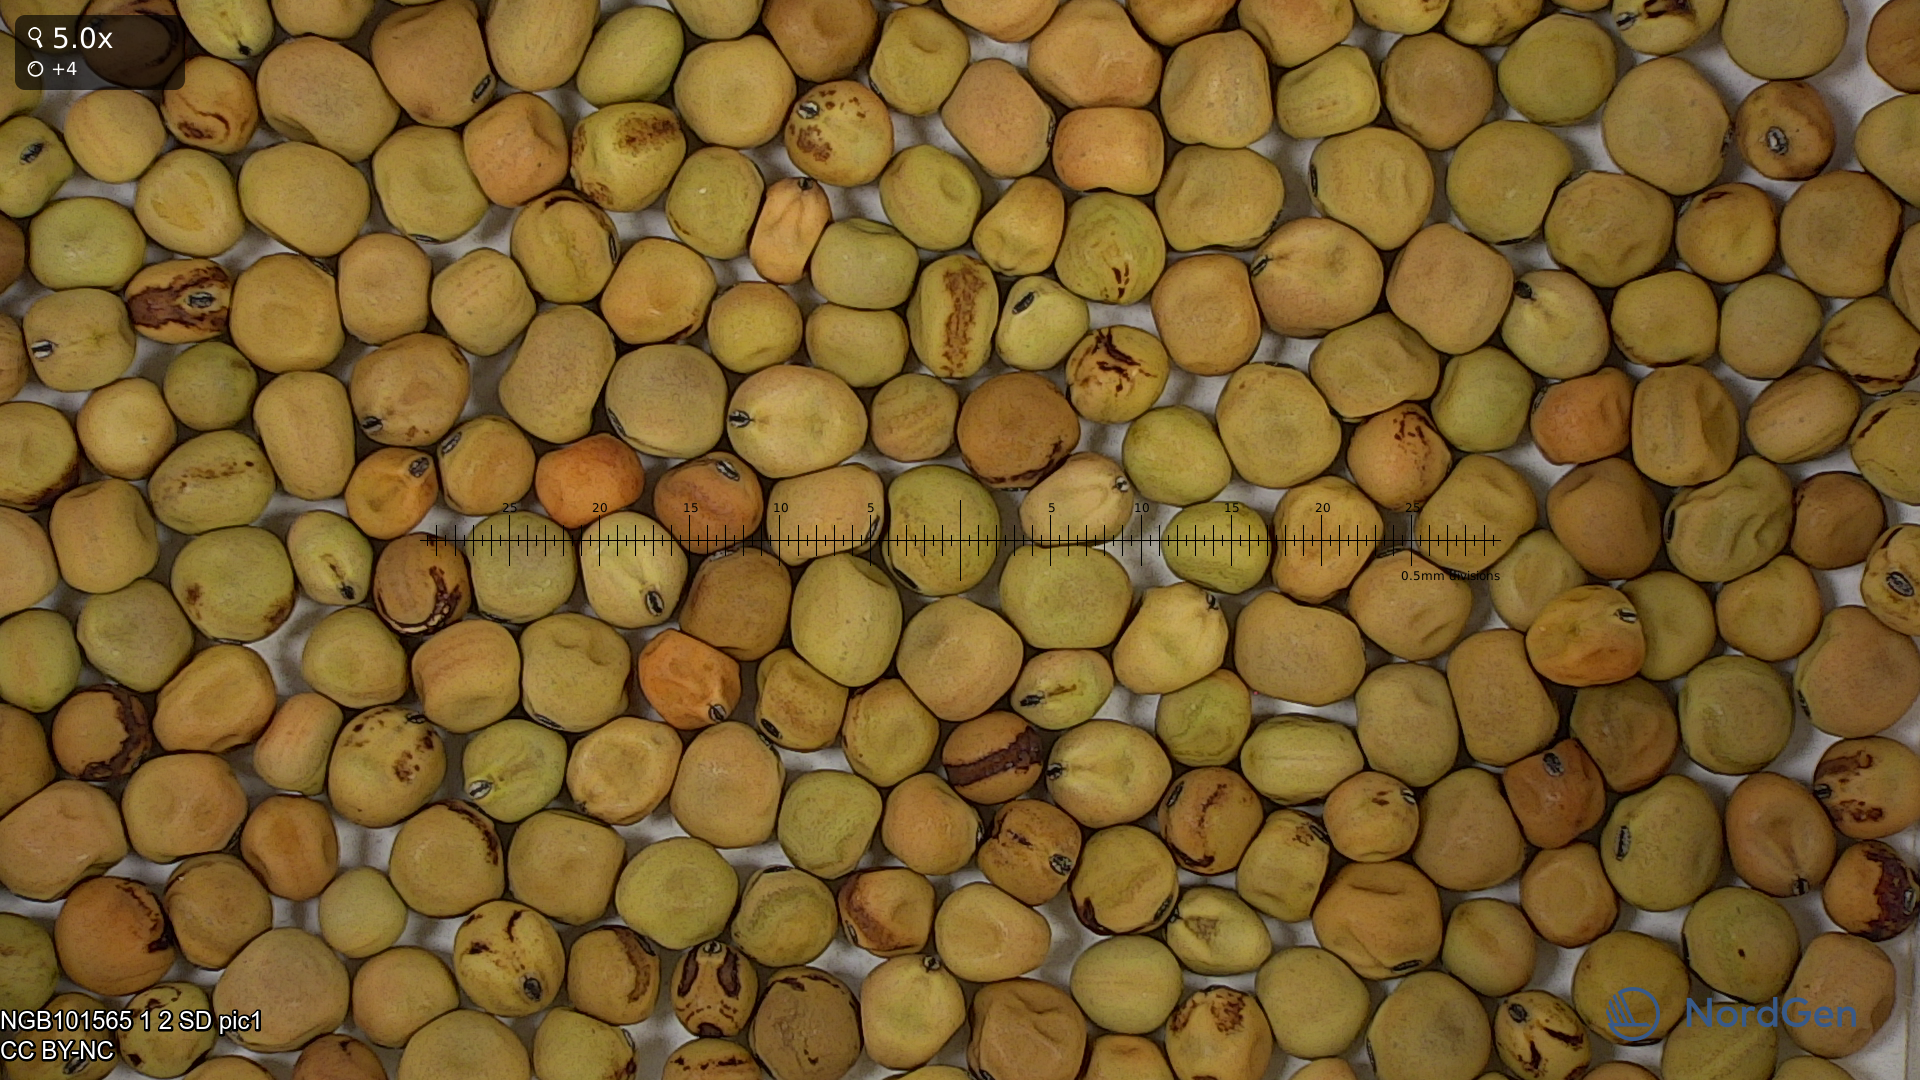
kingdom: Plantae
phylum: Tracheophyta
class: Magnoliopsida
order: Fabales
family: Fabaceae
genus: Lathyrus
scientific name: Lathyrus oleraceus
